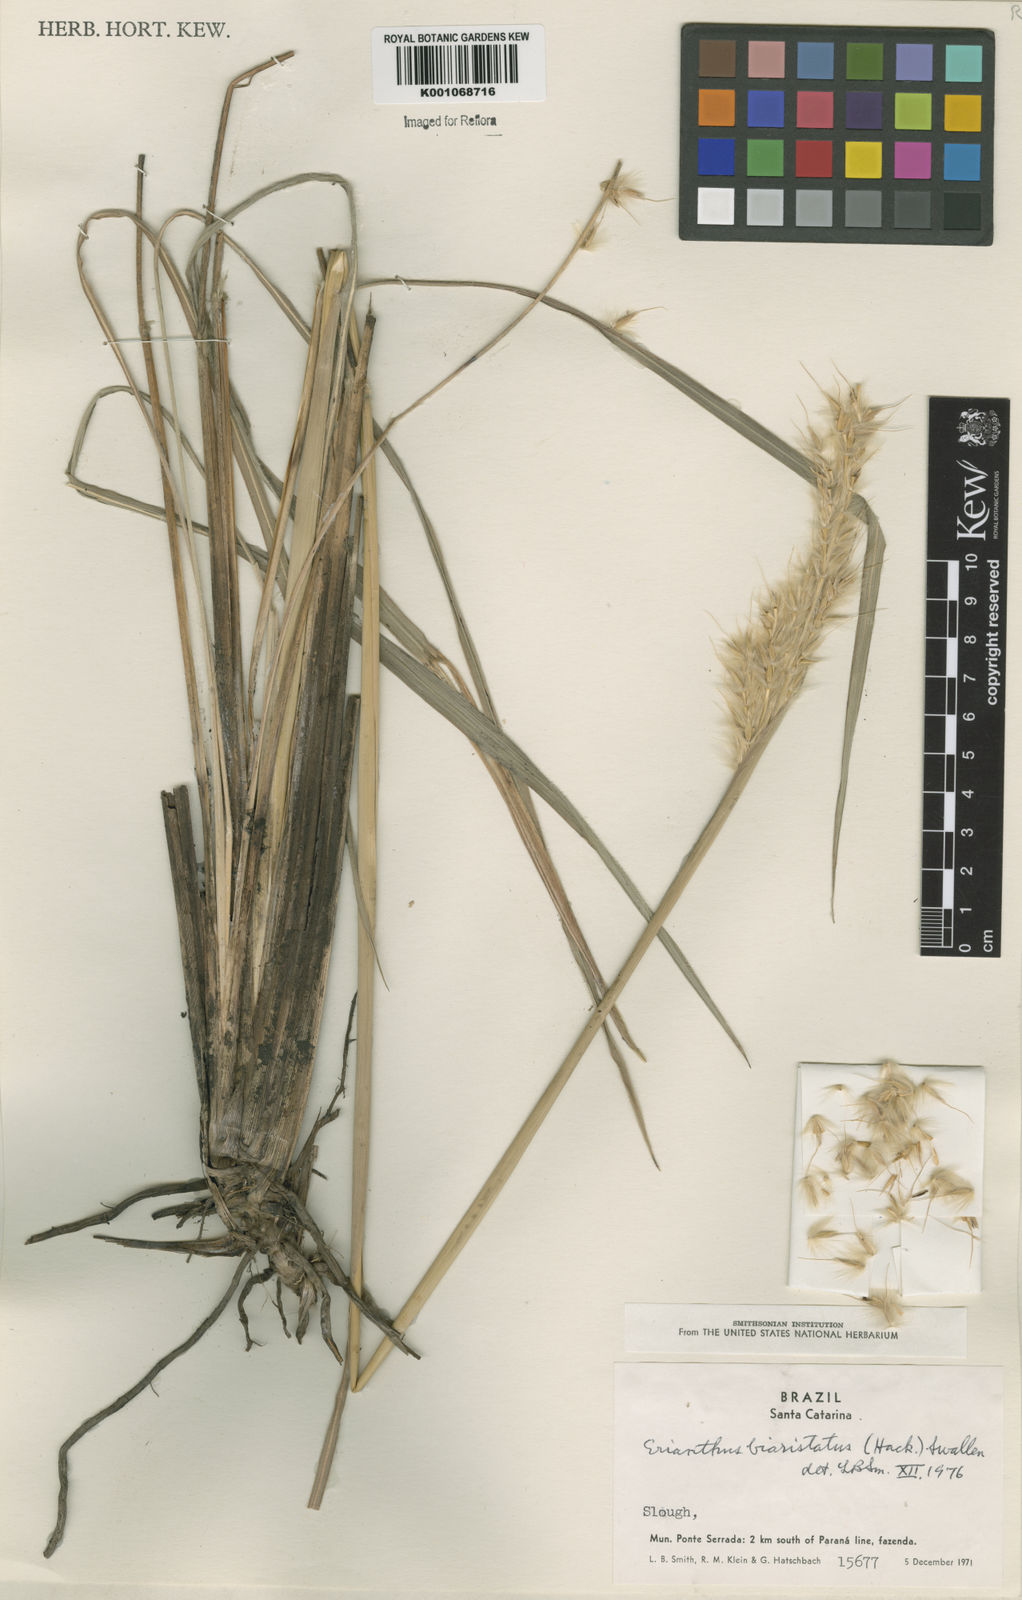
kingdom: Plantae
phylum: Tracheophyta
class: Liliopsida
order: Poales
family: Poaceae
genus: Saccharum
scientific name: Saccharum angustifolium
